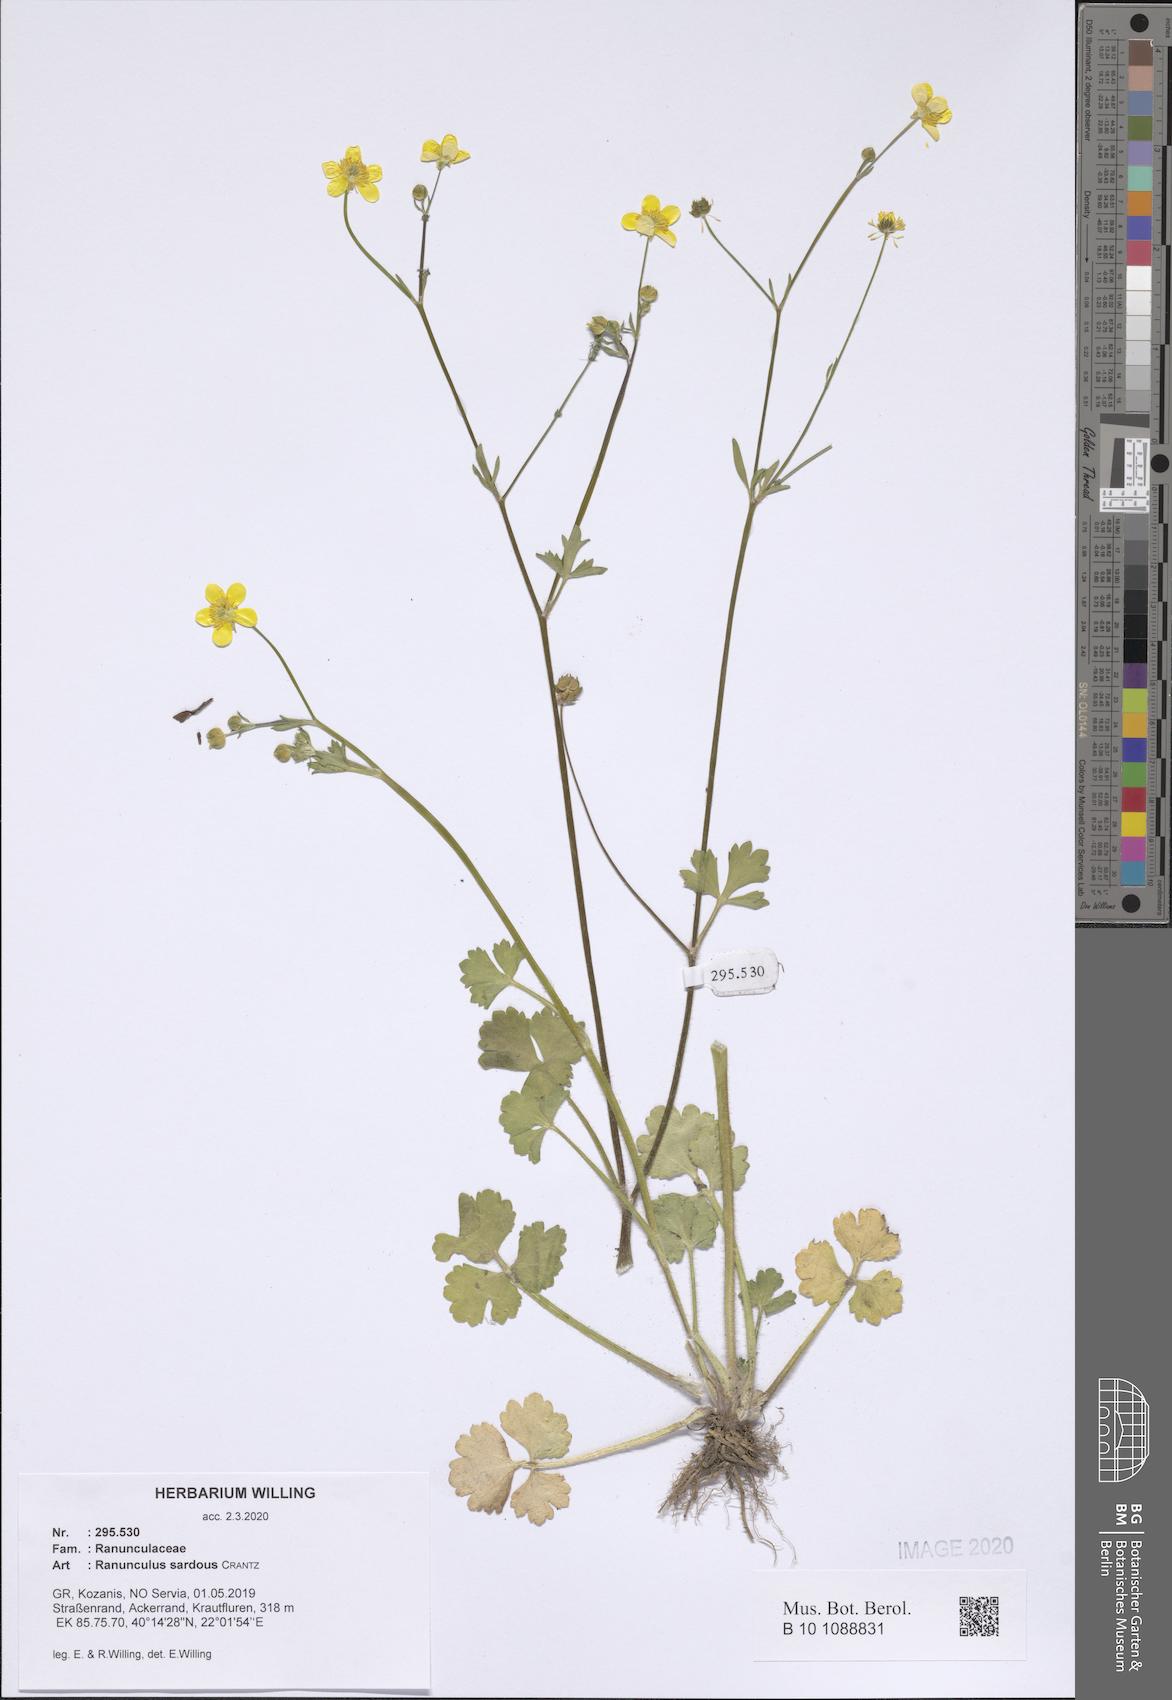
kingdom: Plantae
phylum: Tracheophyta
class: Magnoliopsida
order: Ranunculales
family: Ranunculaceae
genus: Ranunculus
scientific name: Ranunculus sardous
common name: Hairy buttercup
